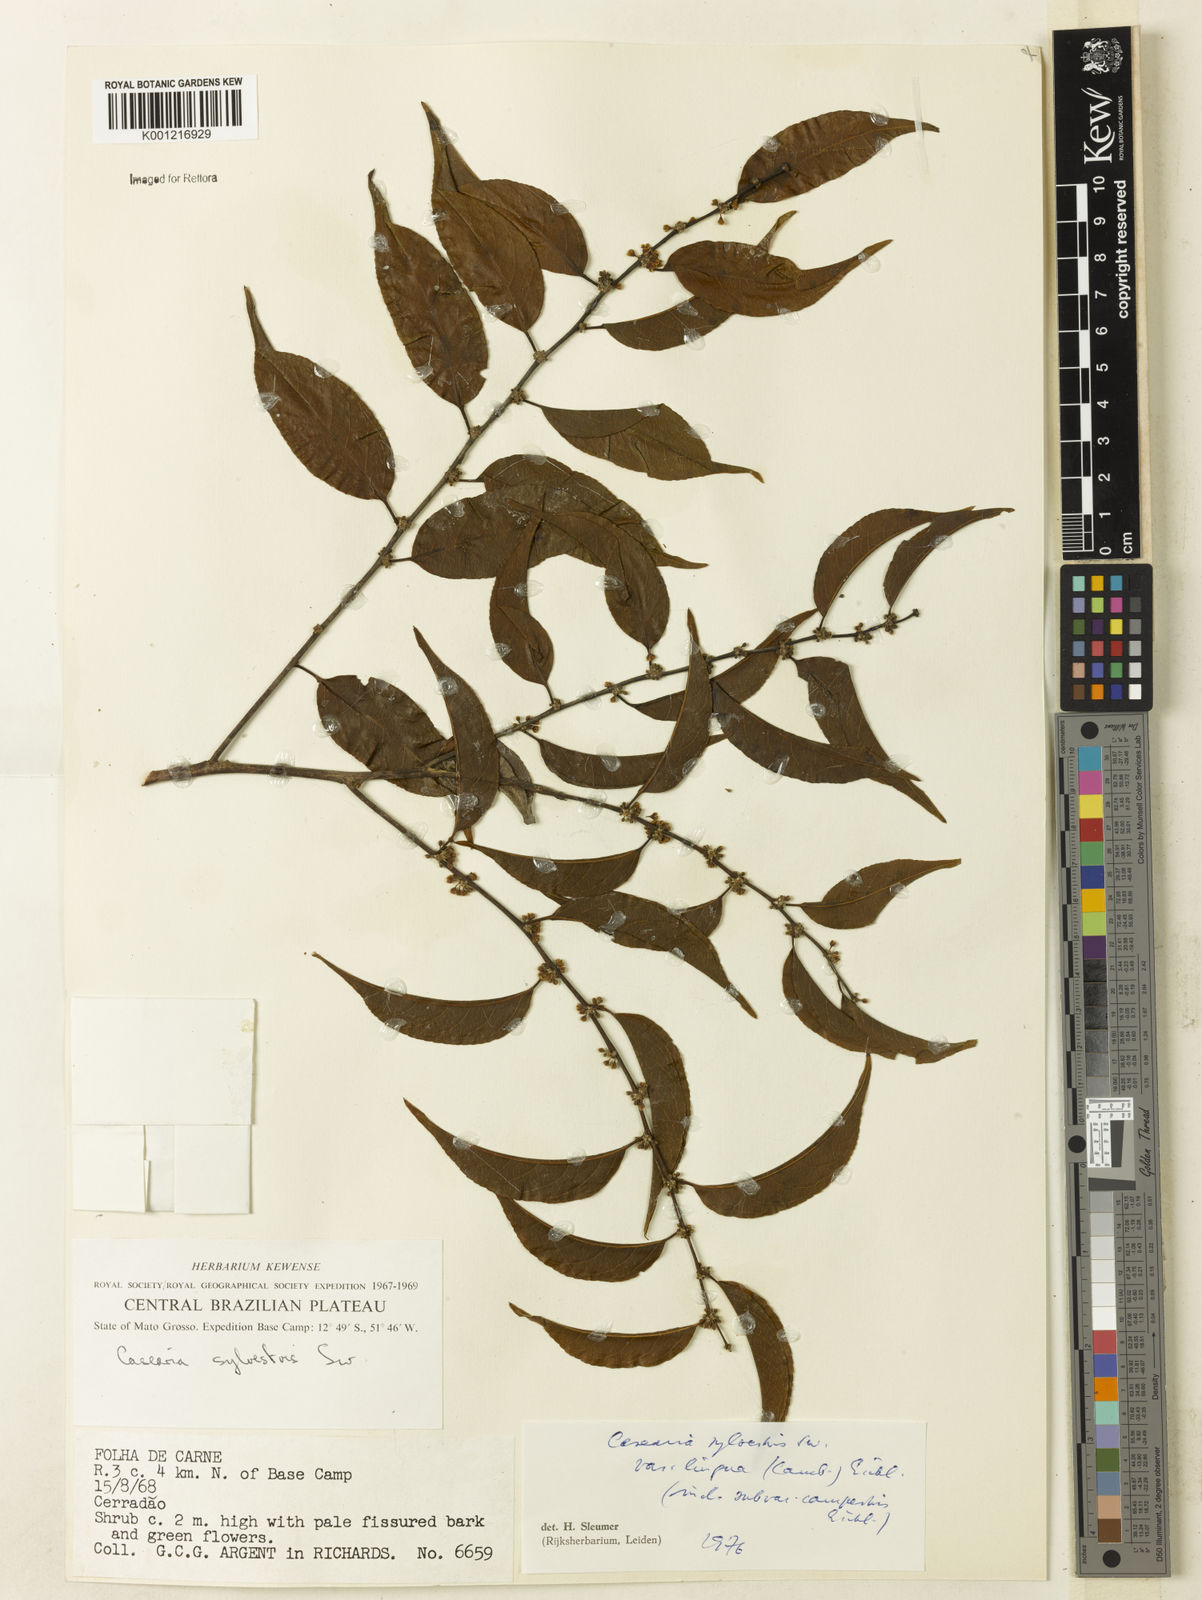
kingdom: Plantae
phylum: Tracheophyta
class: Magnoliopsida
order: Malpighiales
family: Salicaceae
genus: Casearia
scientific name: Casearia sylvestris
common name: Wild sage
